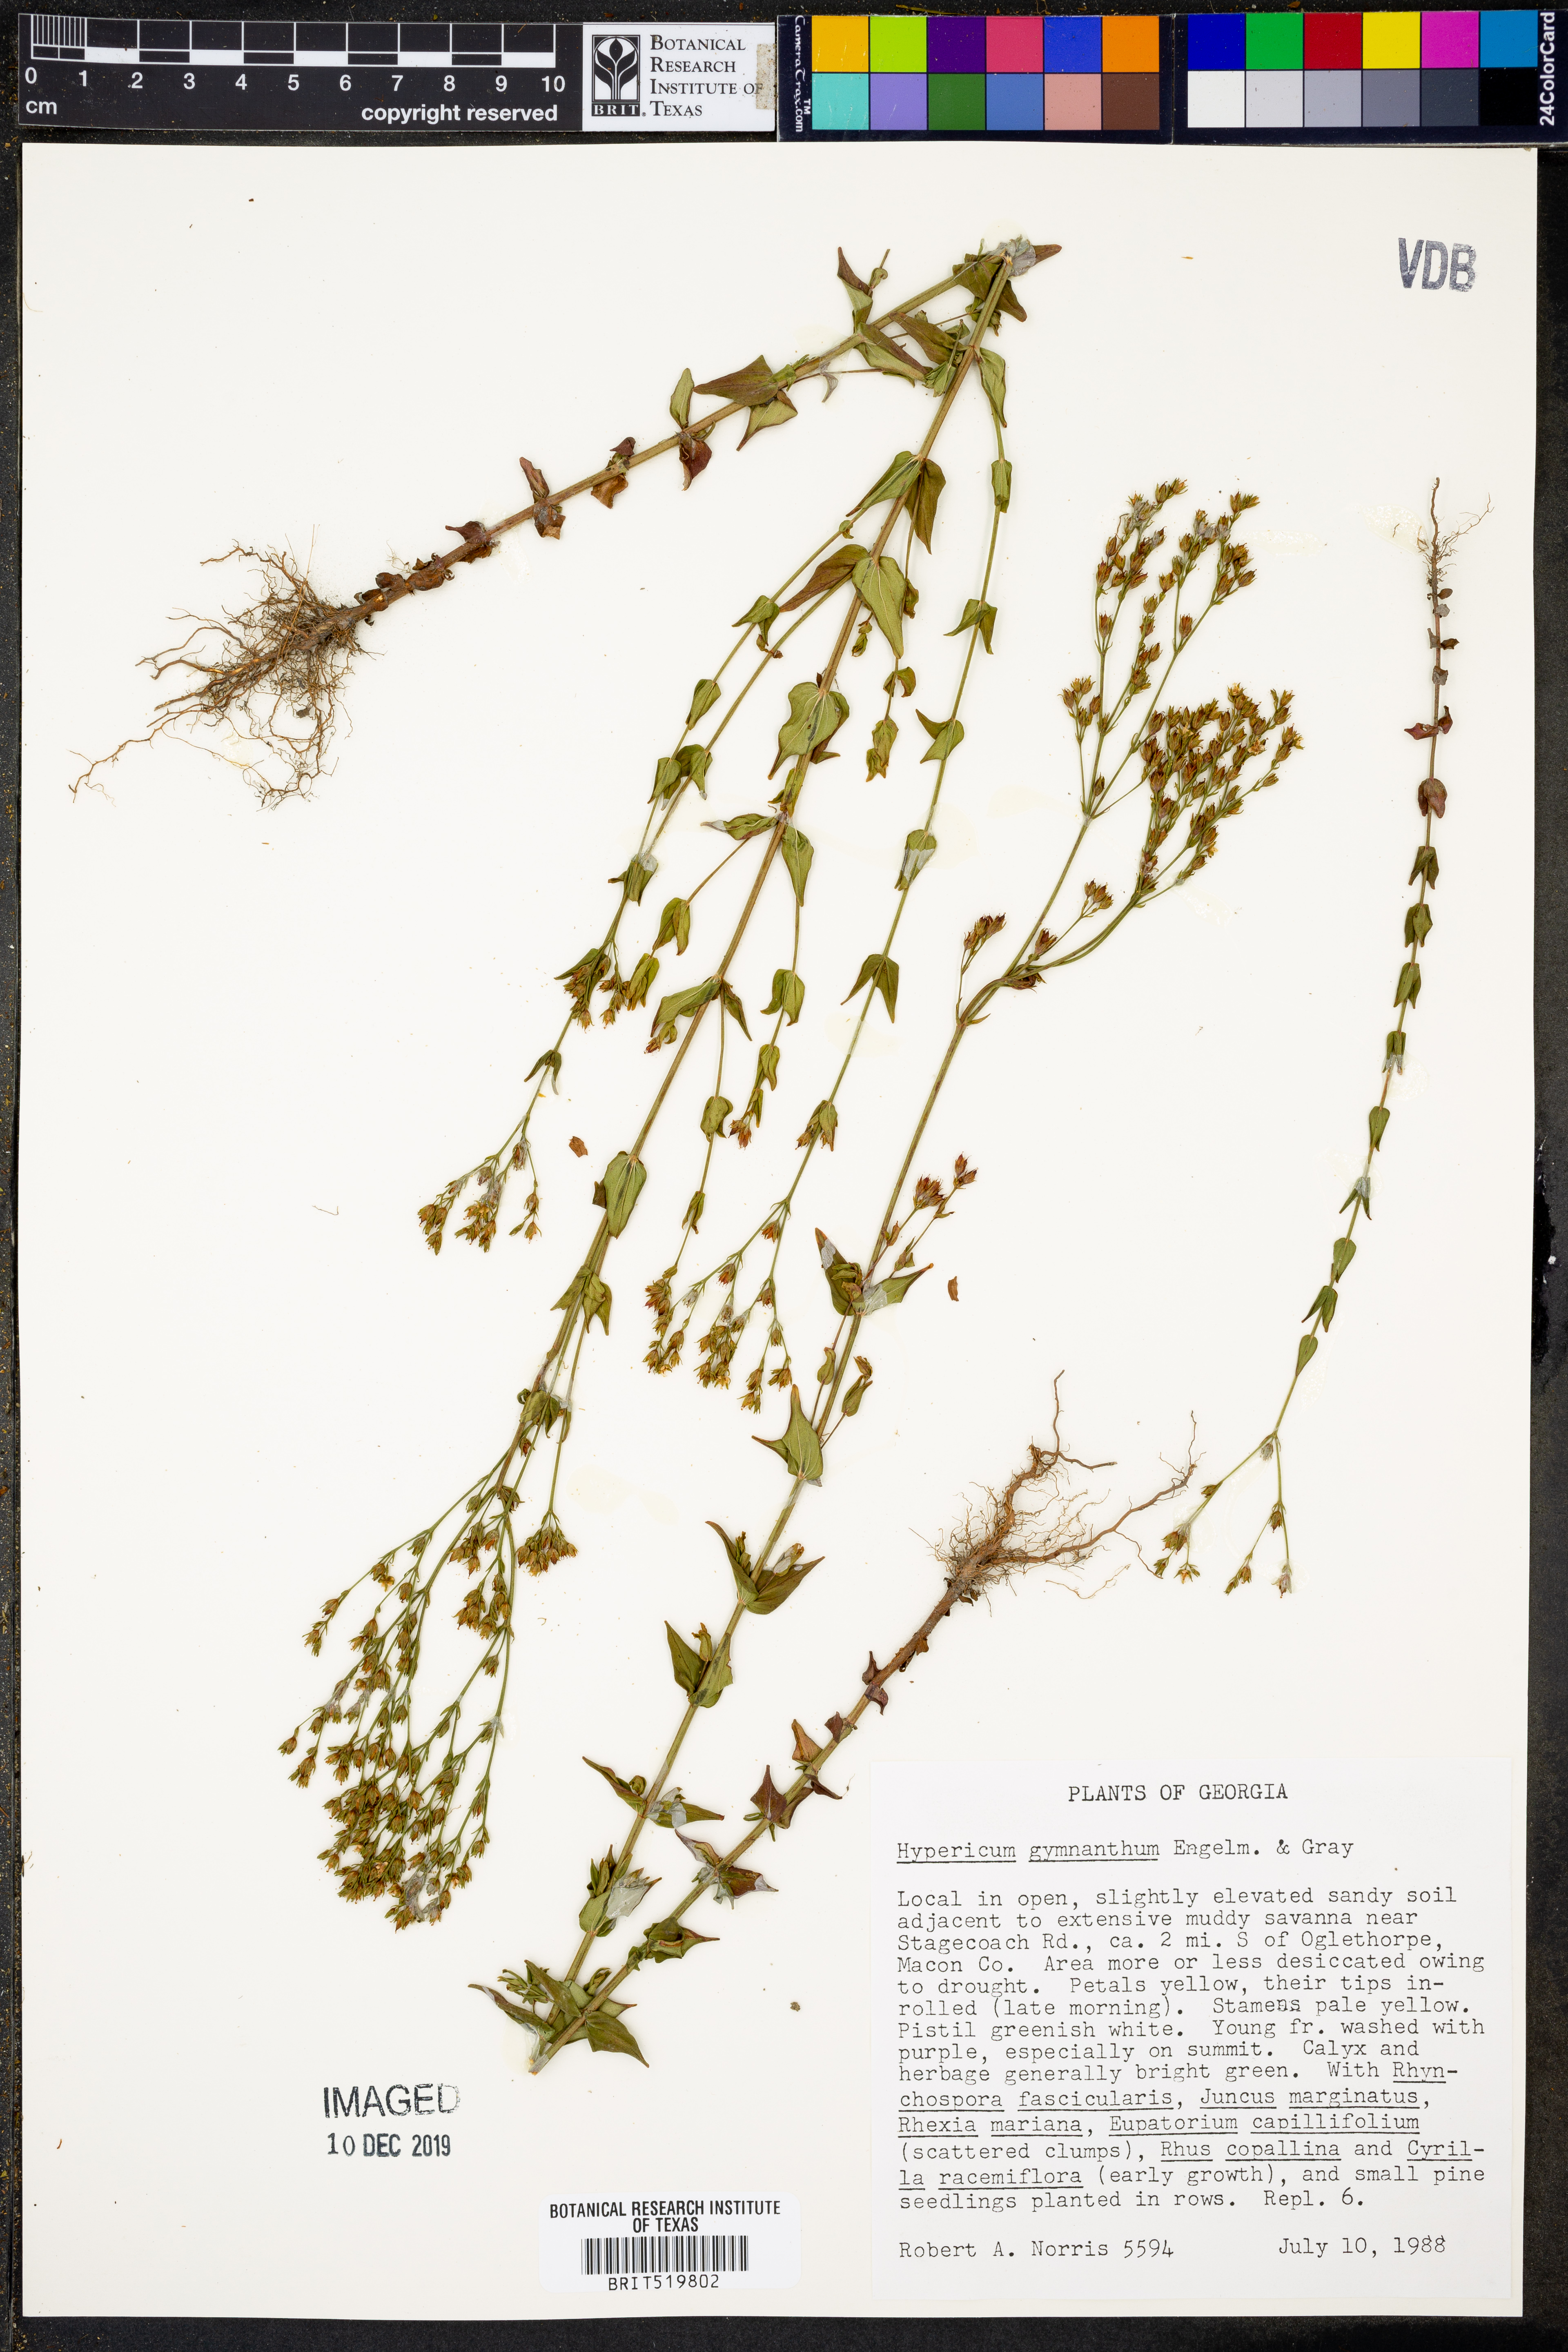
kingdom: Plantae
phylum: Tracheophyta
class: Magnoliopsida
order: Malpighiales
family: Hypericaceae
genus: Hypericum
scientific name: Hypericum gymnanthum
